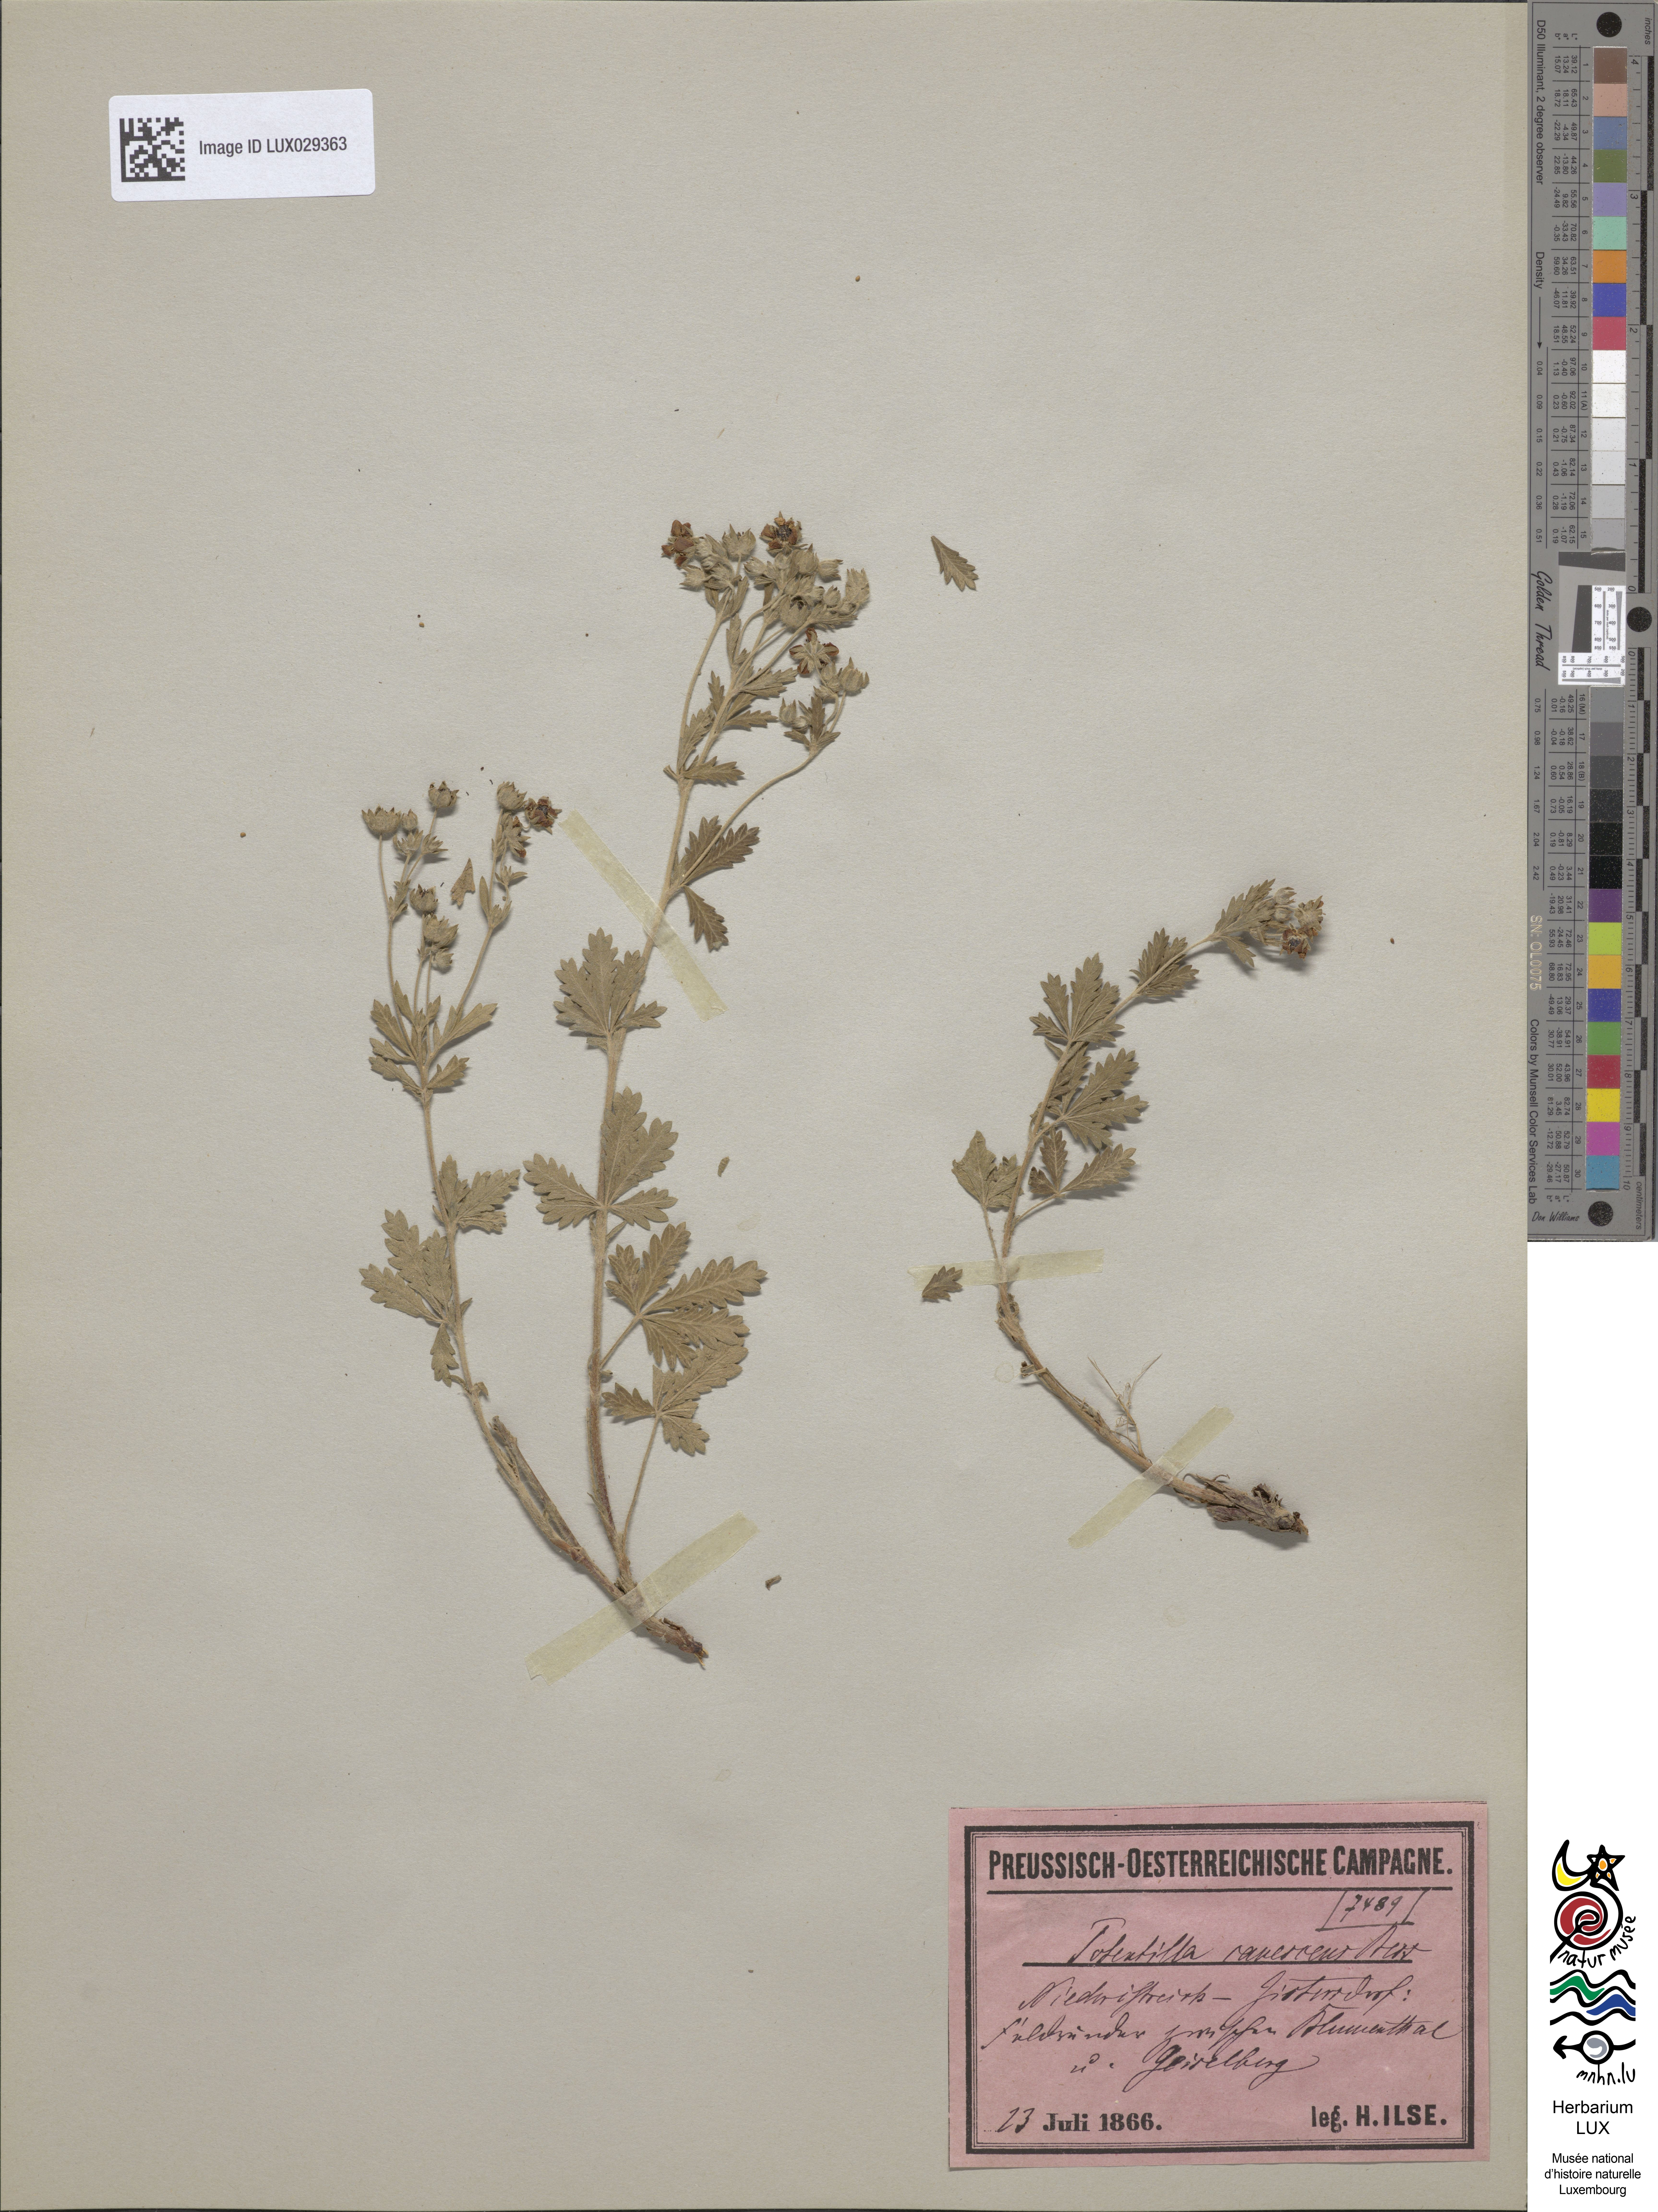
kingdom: Plantae
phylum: Tracheophyta
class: Magnoliopsida
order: Rosales
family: Rosaceae
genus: Potentilla
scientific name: Potentilla inclinata
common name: Grey cinquefoil
